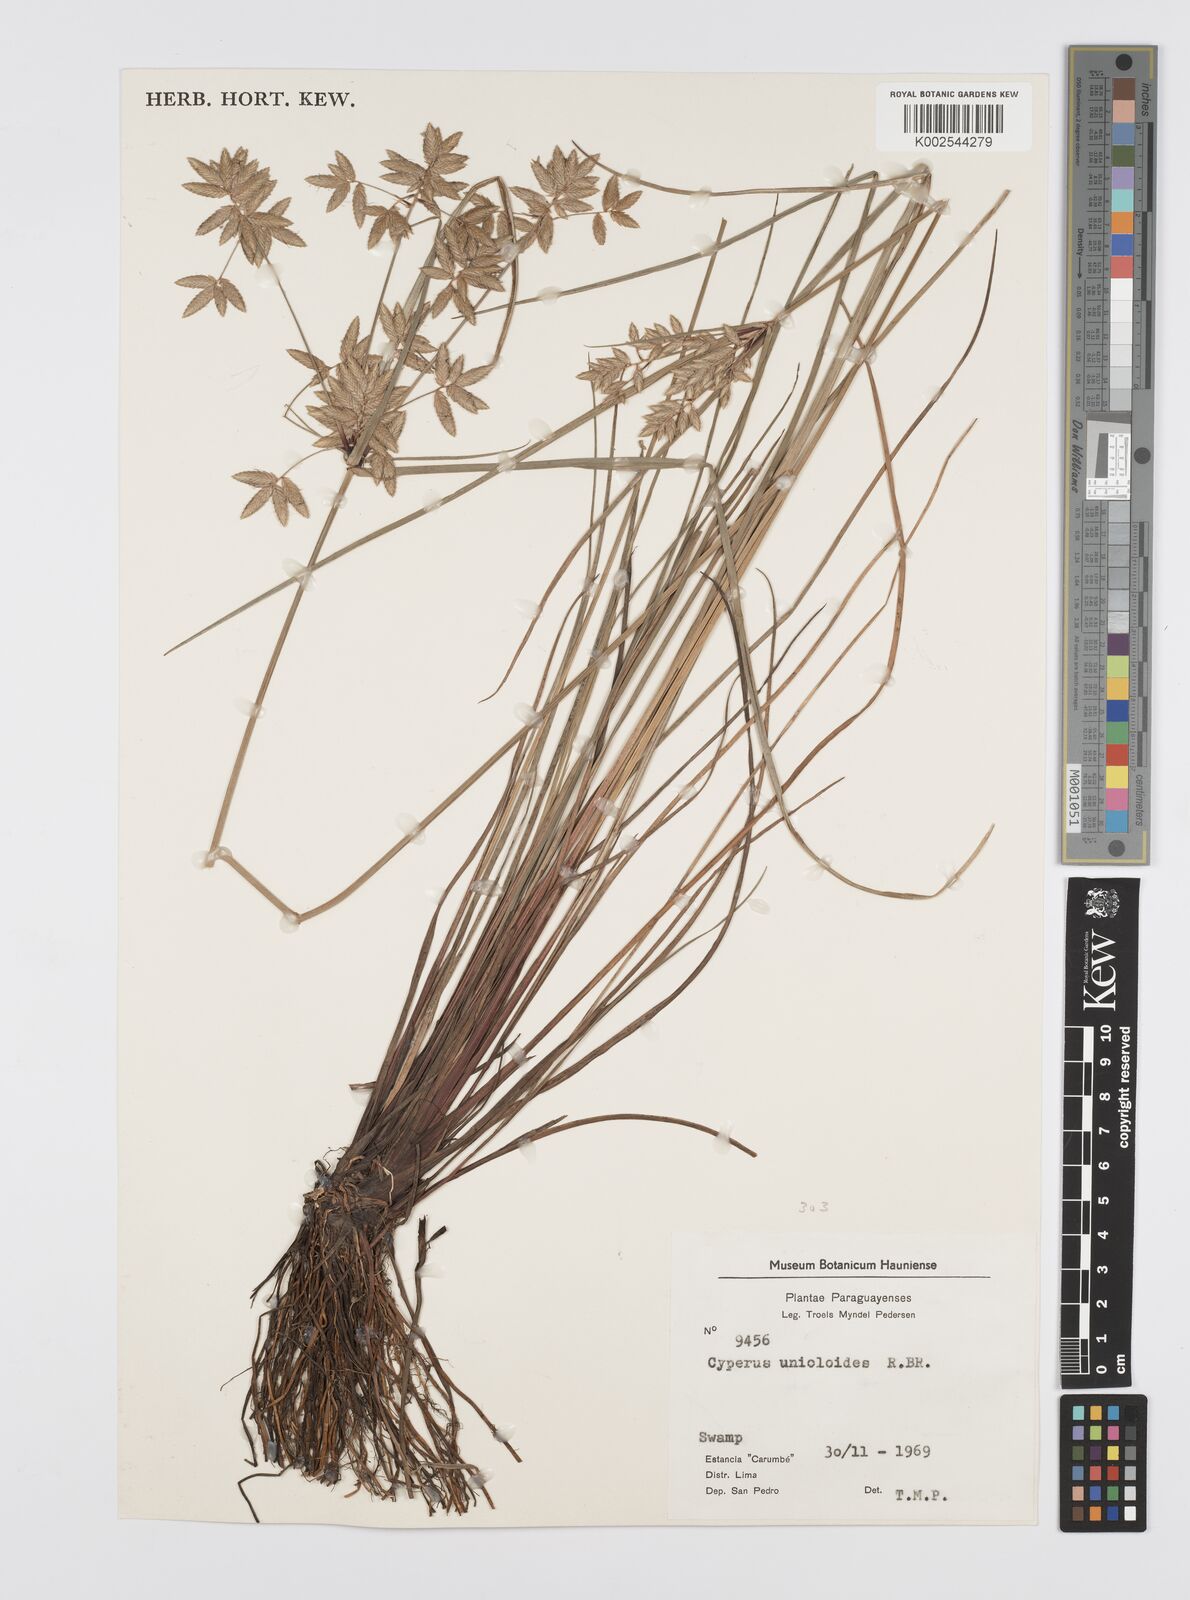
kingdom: Plantae
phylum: Tracheophyta
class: Liliopsida
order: Poales
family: Cyperaceae
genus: Cyperus
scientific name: Cyperus unioloides
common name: Uniola flatsedge
